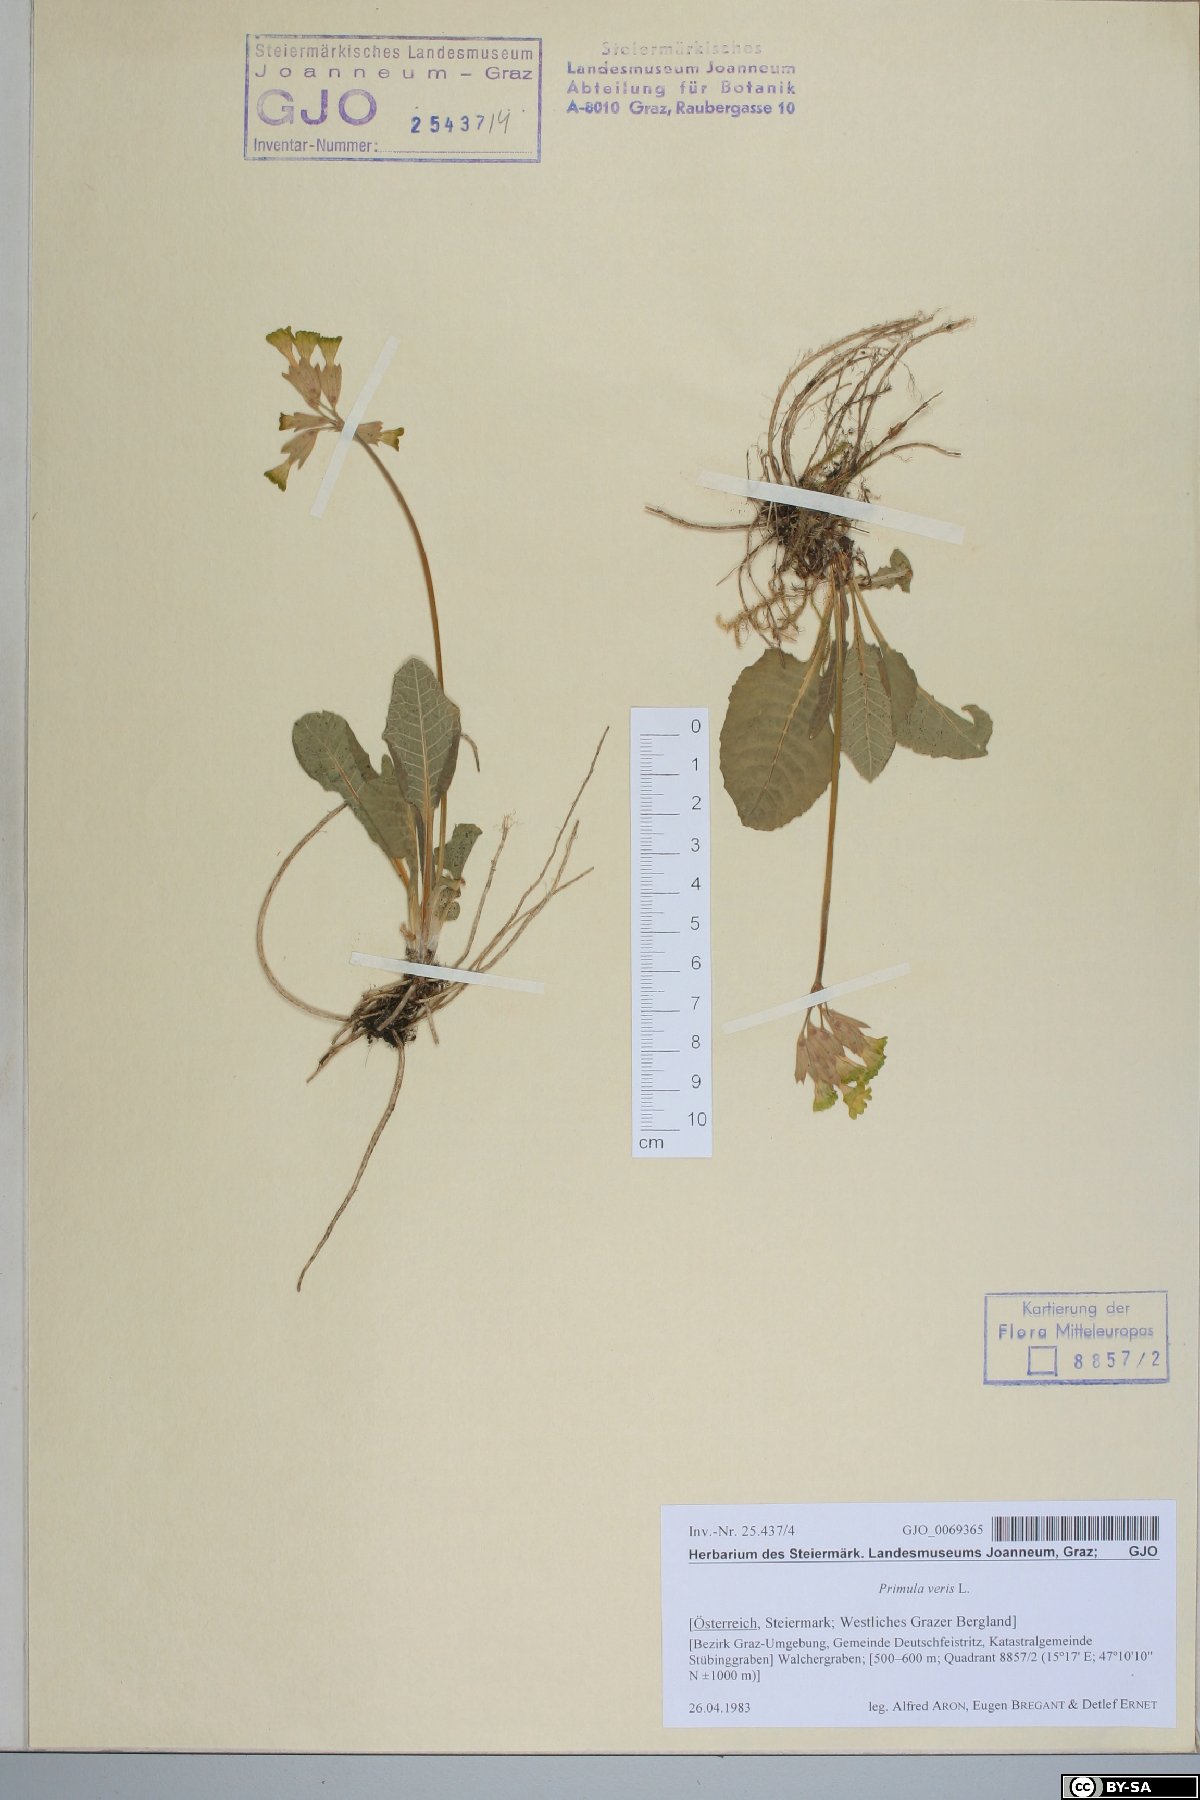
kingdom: Plantae
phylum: Tracheophyta
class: Magnoliopsida
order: Ericales
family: Primulaceae
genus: Primula
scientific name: Primula veris
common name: Cowslip
